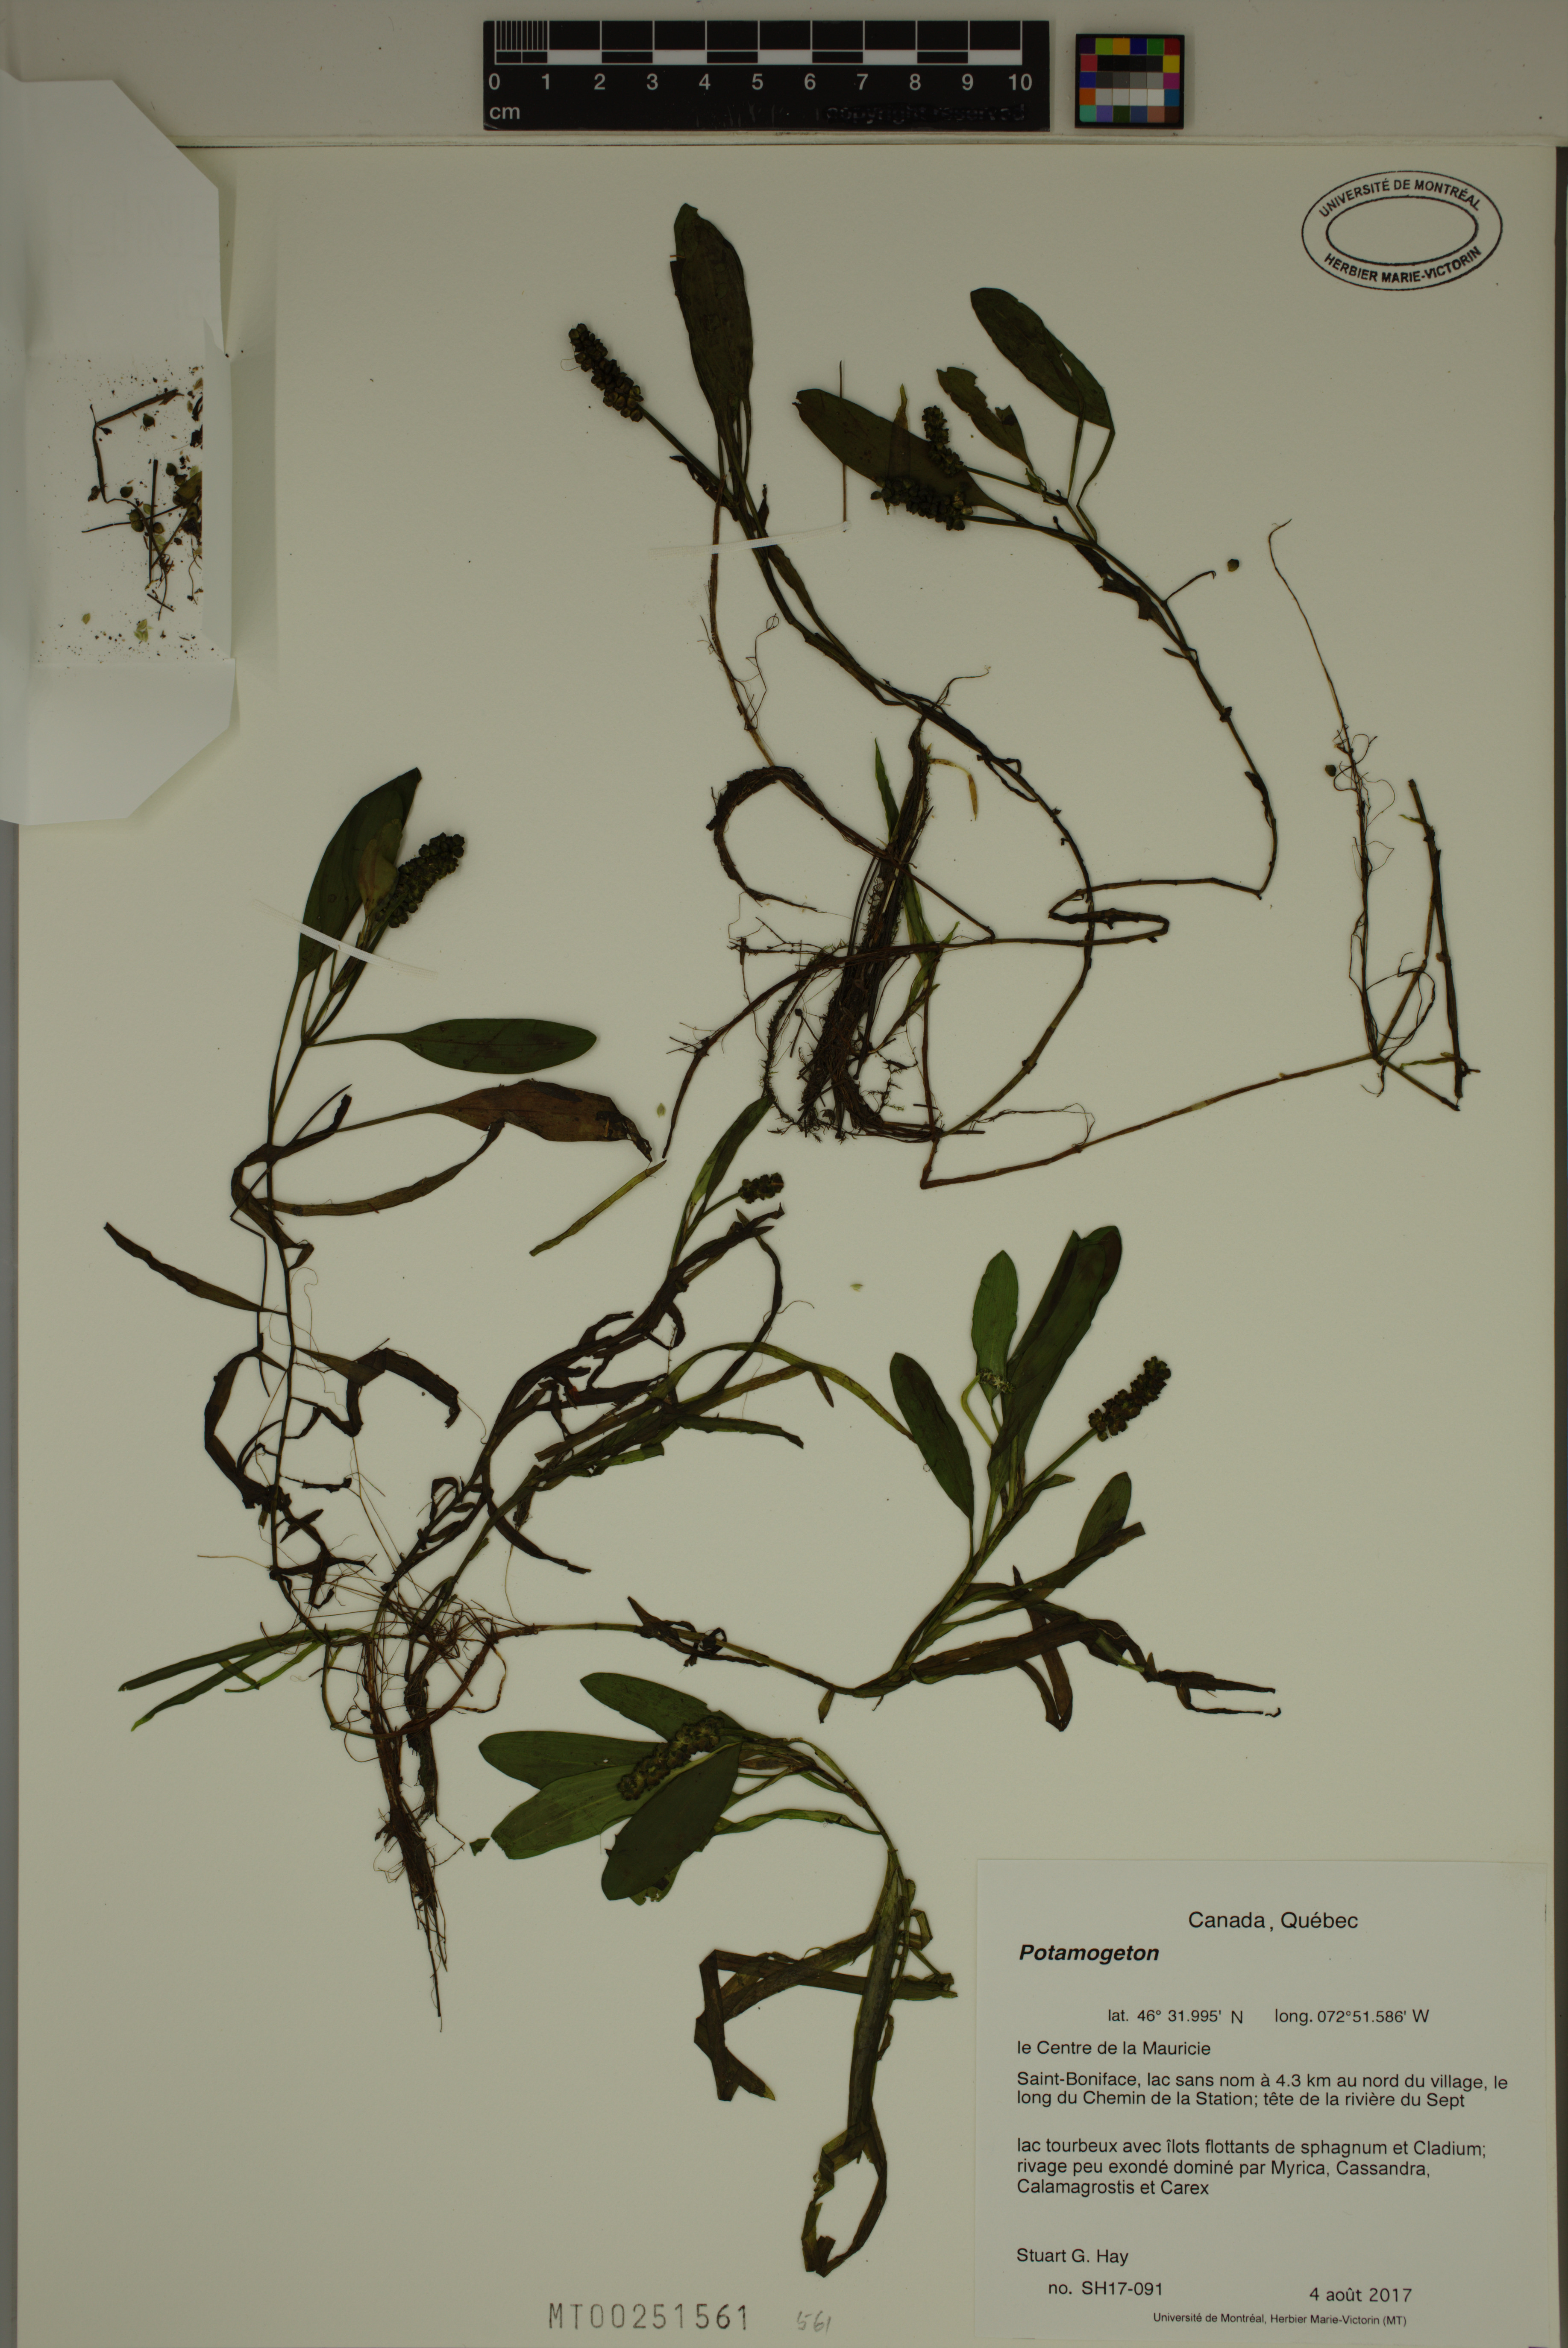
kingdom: Plantae
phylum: Tracheophyta
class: Liliopsida
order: Alismatales
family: Potamogetonaceae
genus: Potamogeton
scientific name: Potamogeton
